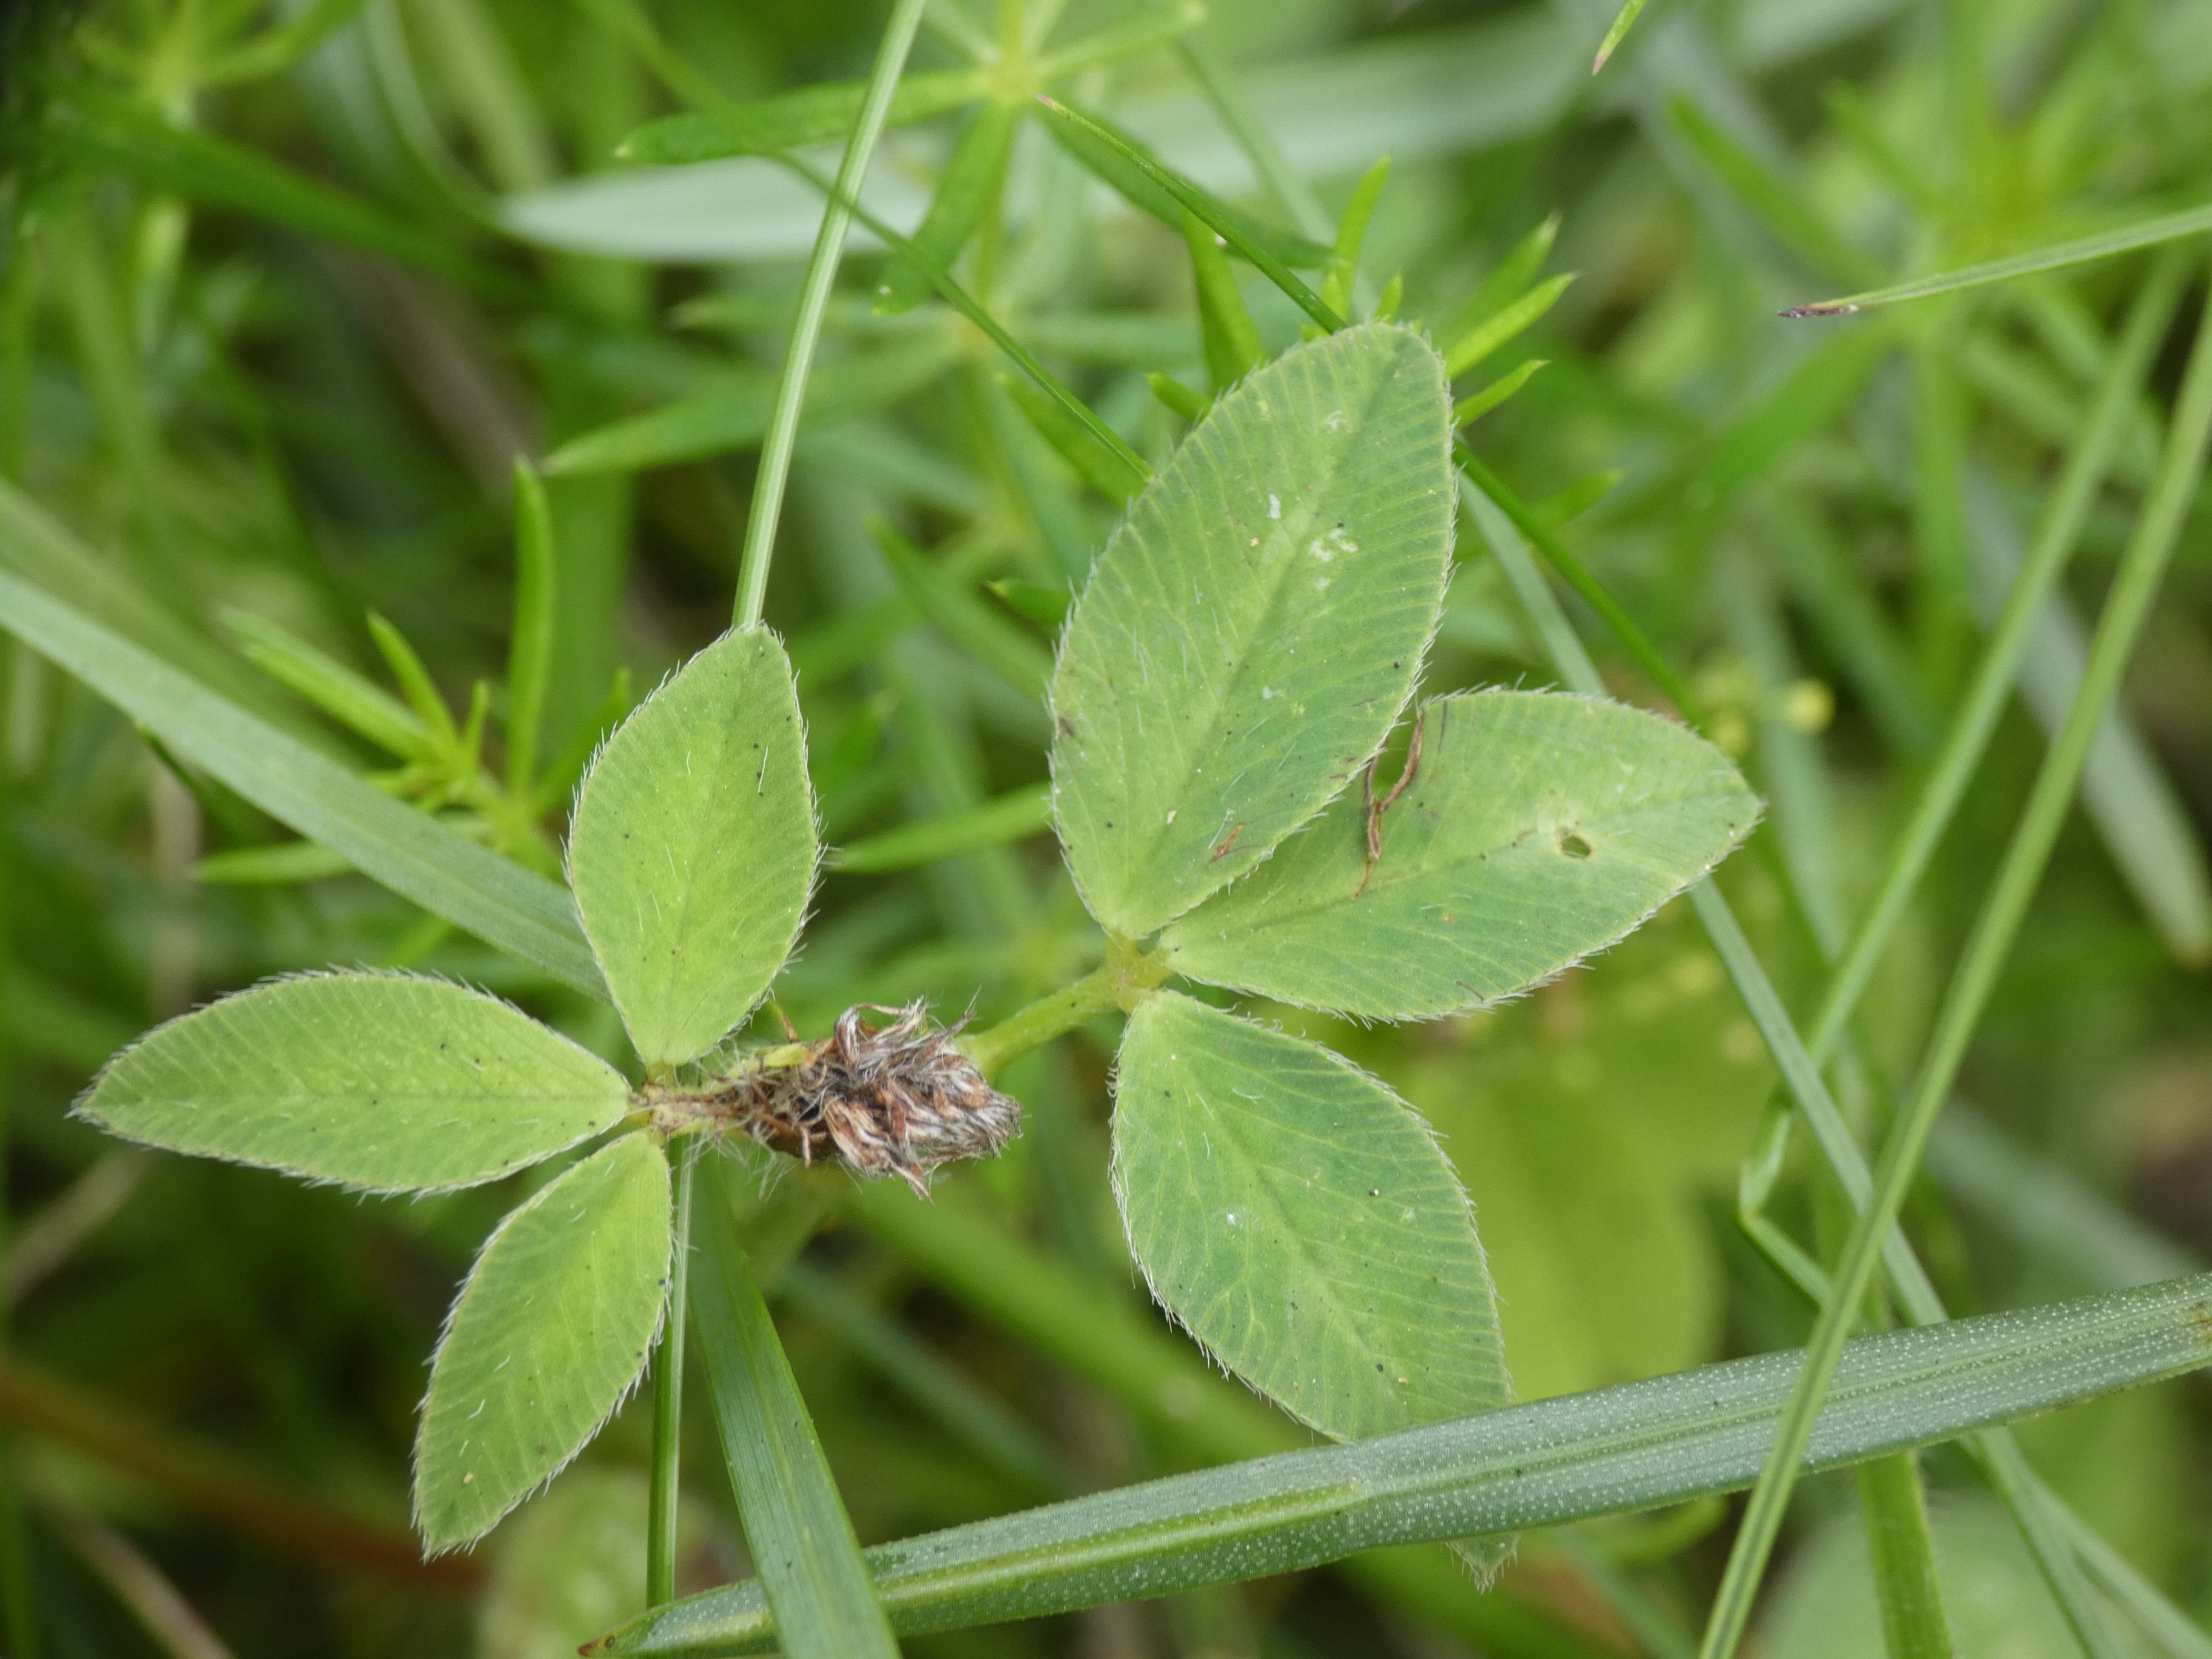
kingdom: Plantae
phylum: Tracheophyta
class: Magnoliopsida
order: Fabales
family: Fabaceae
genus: Trifolium
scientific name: Trifolium pratense
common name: Rød-kløver
